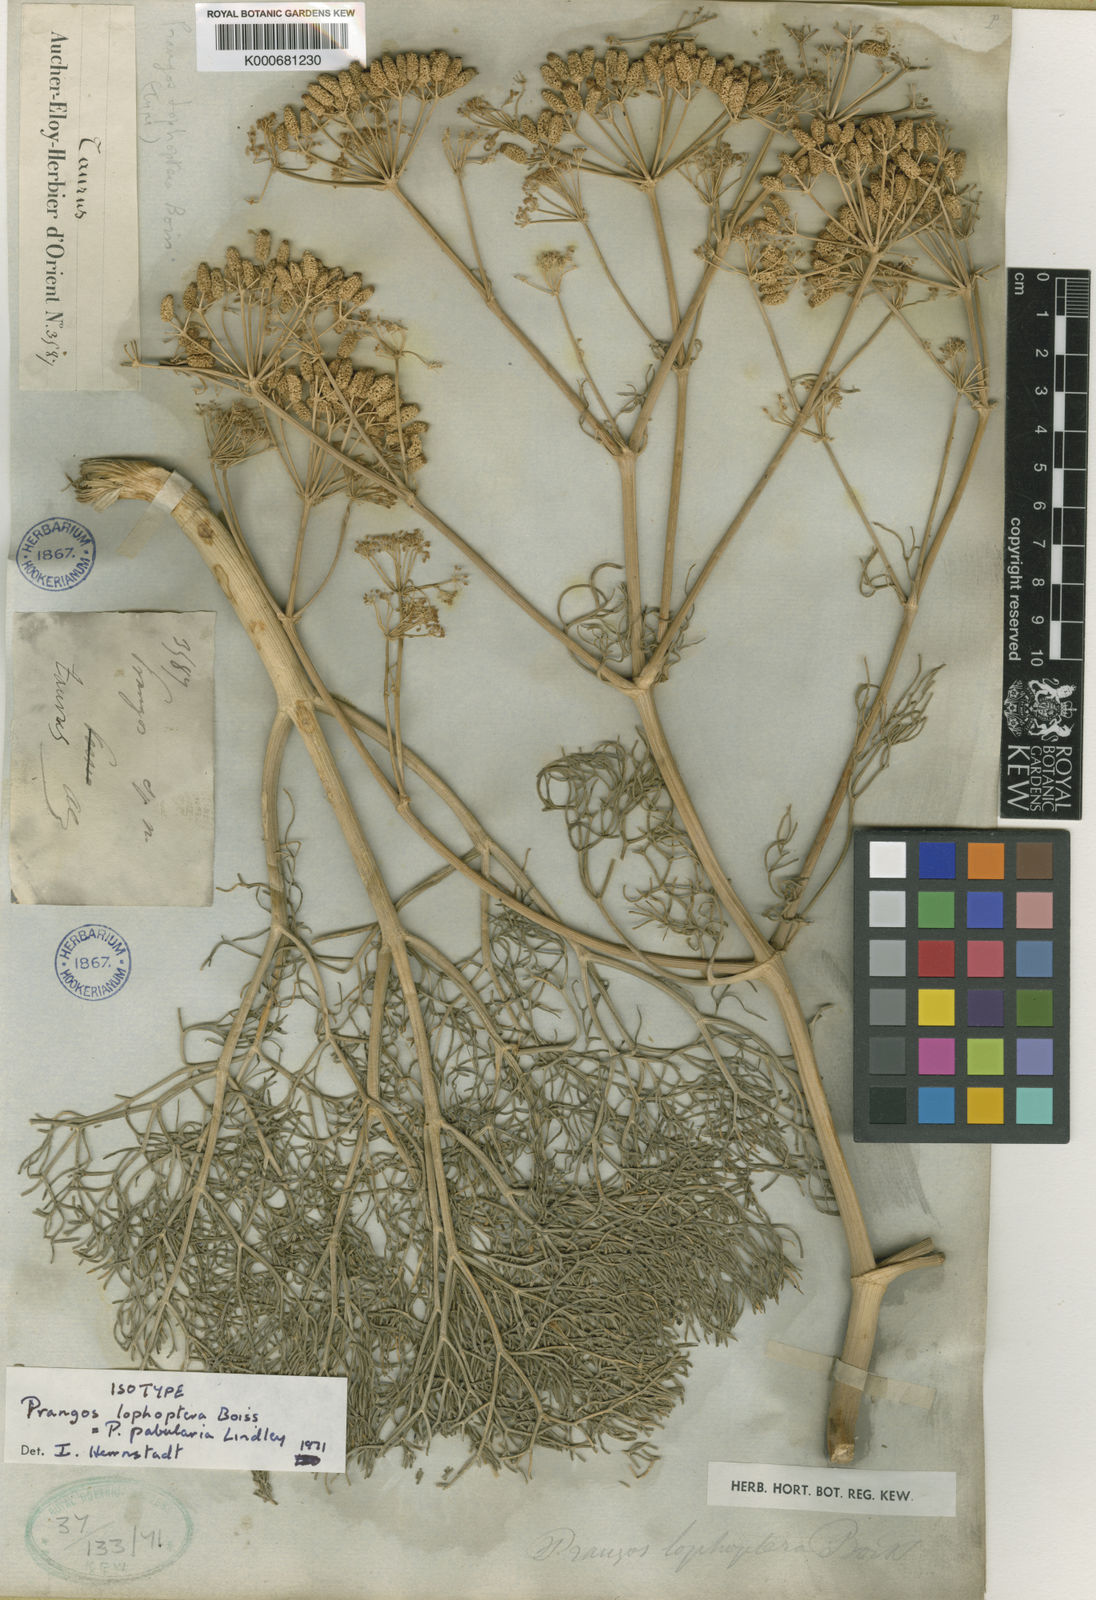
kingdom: Plantae
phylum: Tracheophyta
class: Magnoliopsida
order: Apiales
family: Apiaceae
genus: Prangos
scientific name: Prangos pabularia
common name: Yugan
